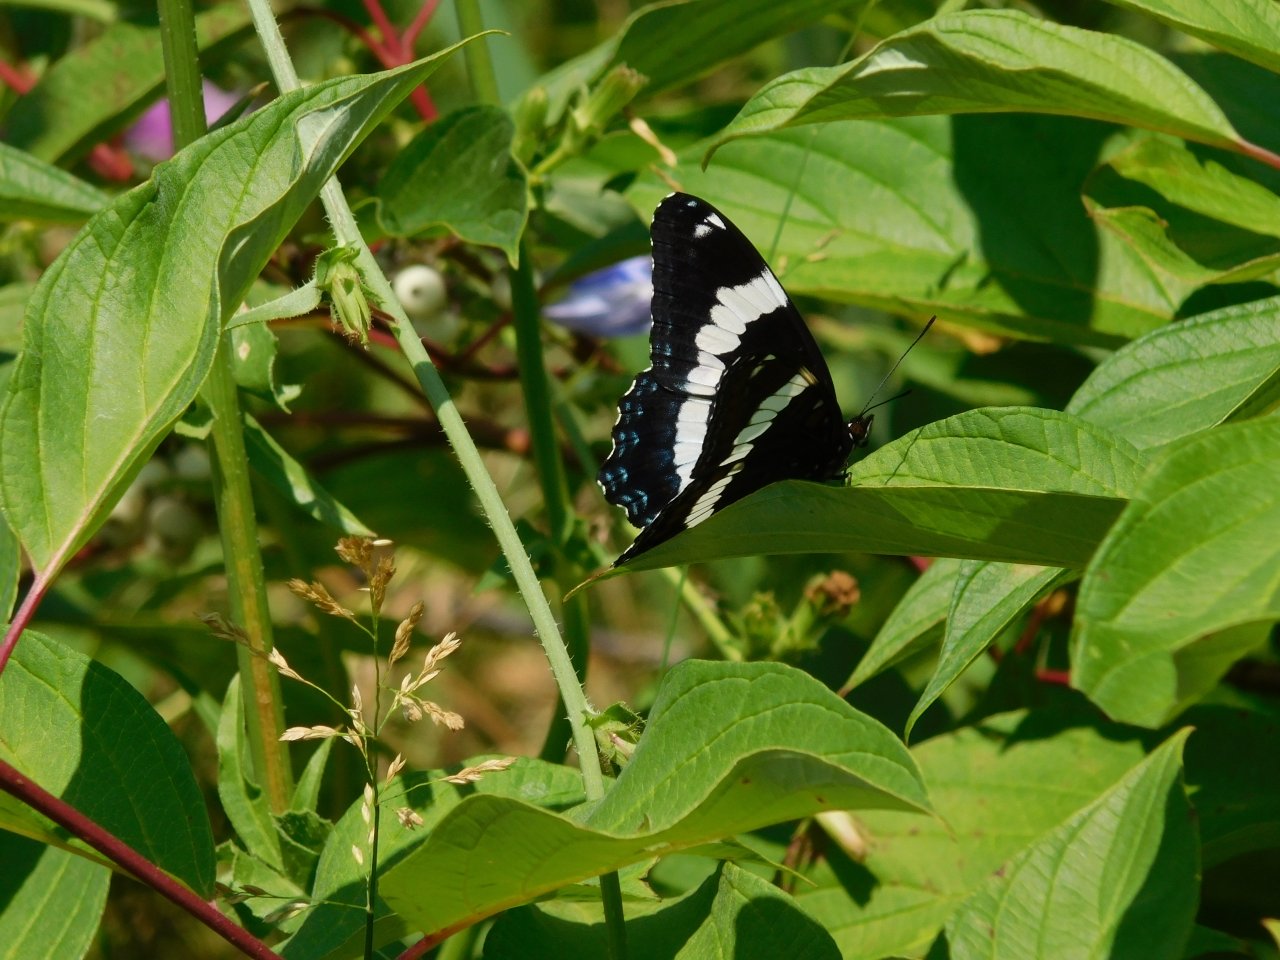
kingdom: Animalia
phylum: Arthropoda
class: Insecta
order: Lepidoptera
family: Nymphalidae
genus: Limenitis
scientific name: Limenitis arthemis
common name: Red-spotted Admiral
